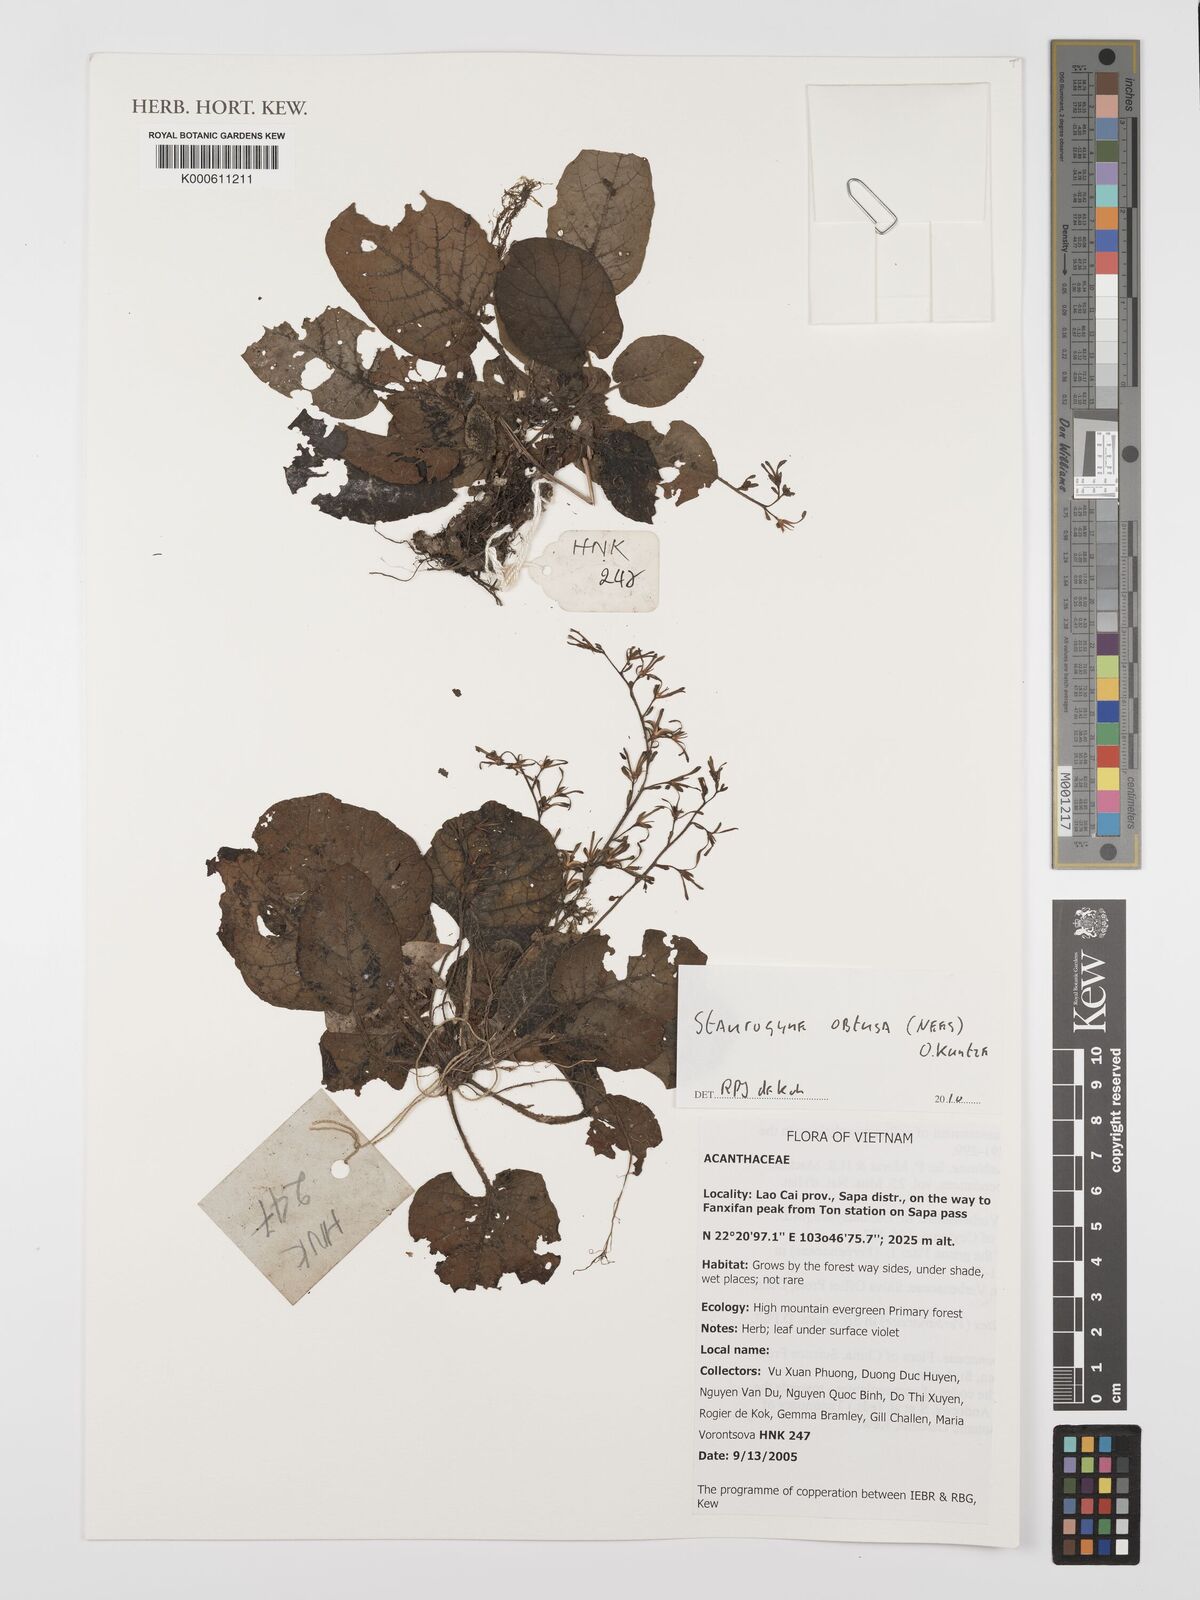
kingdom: Plantae
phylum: Tracheophyta
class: Magnoliopsida
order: Lamiales
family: Acanthaceae
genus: Staurogyne
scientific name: Staurogyne obtusa
